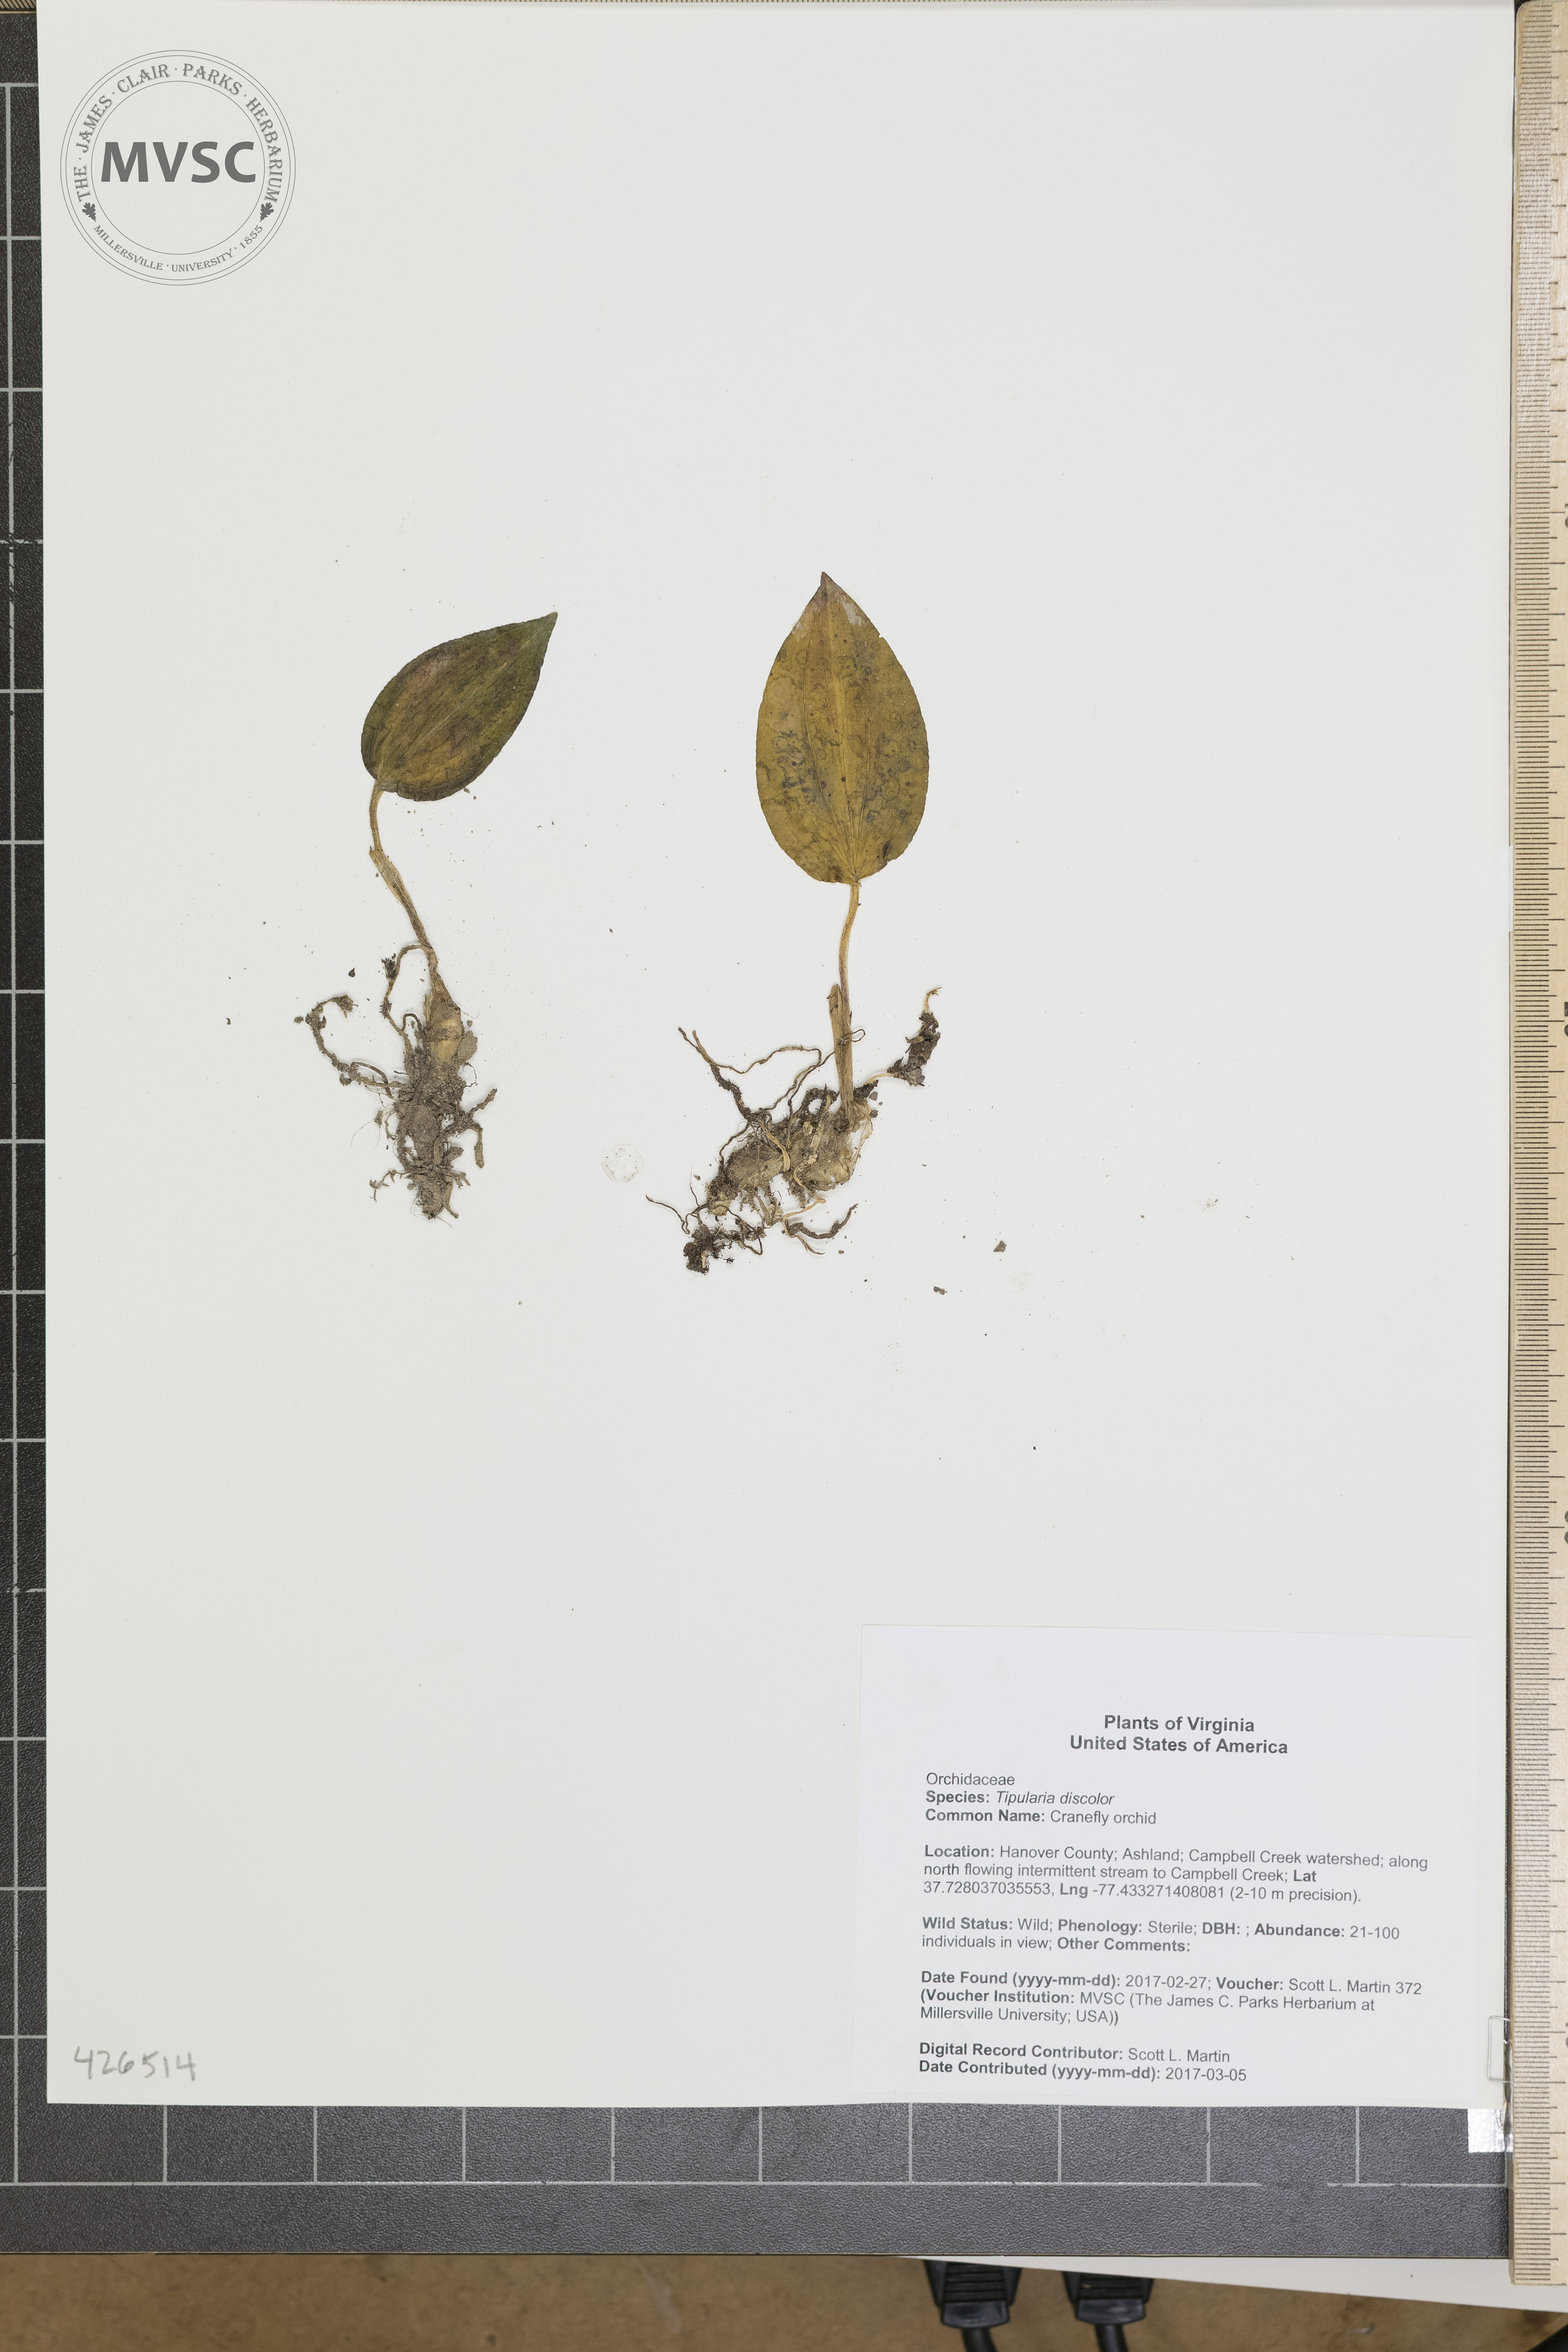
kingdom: Plantae
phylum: Tracheophyta
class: Liliopsida
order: Asparagales
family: Orchidaceae
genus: Tipularia
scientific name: Tipularia discolor
